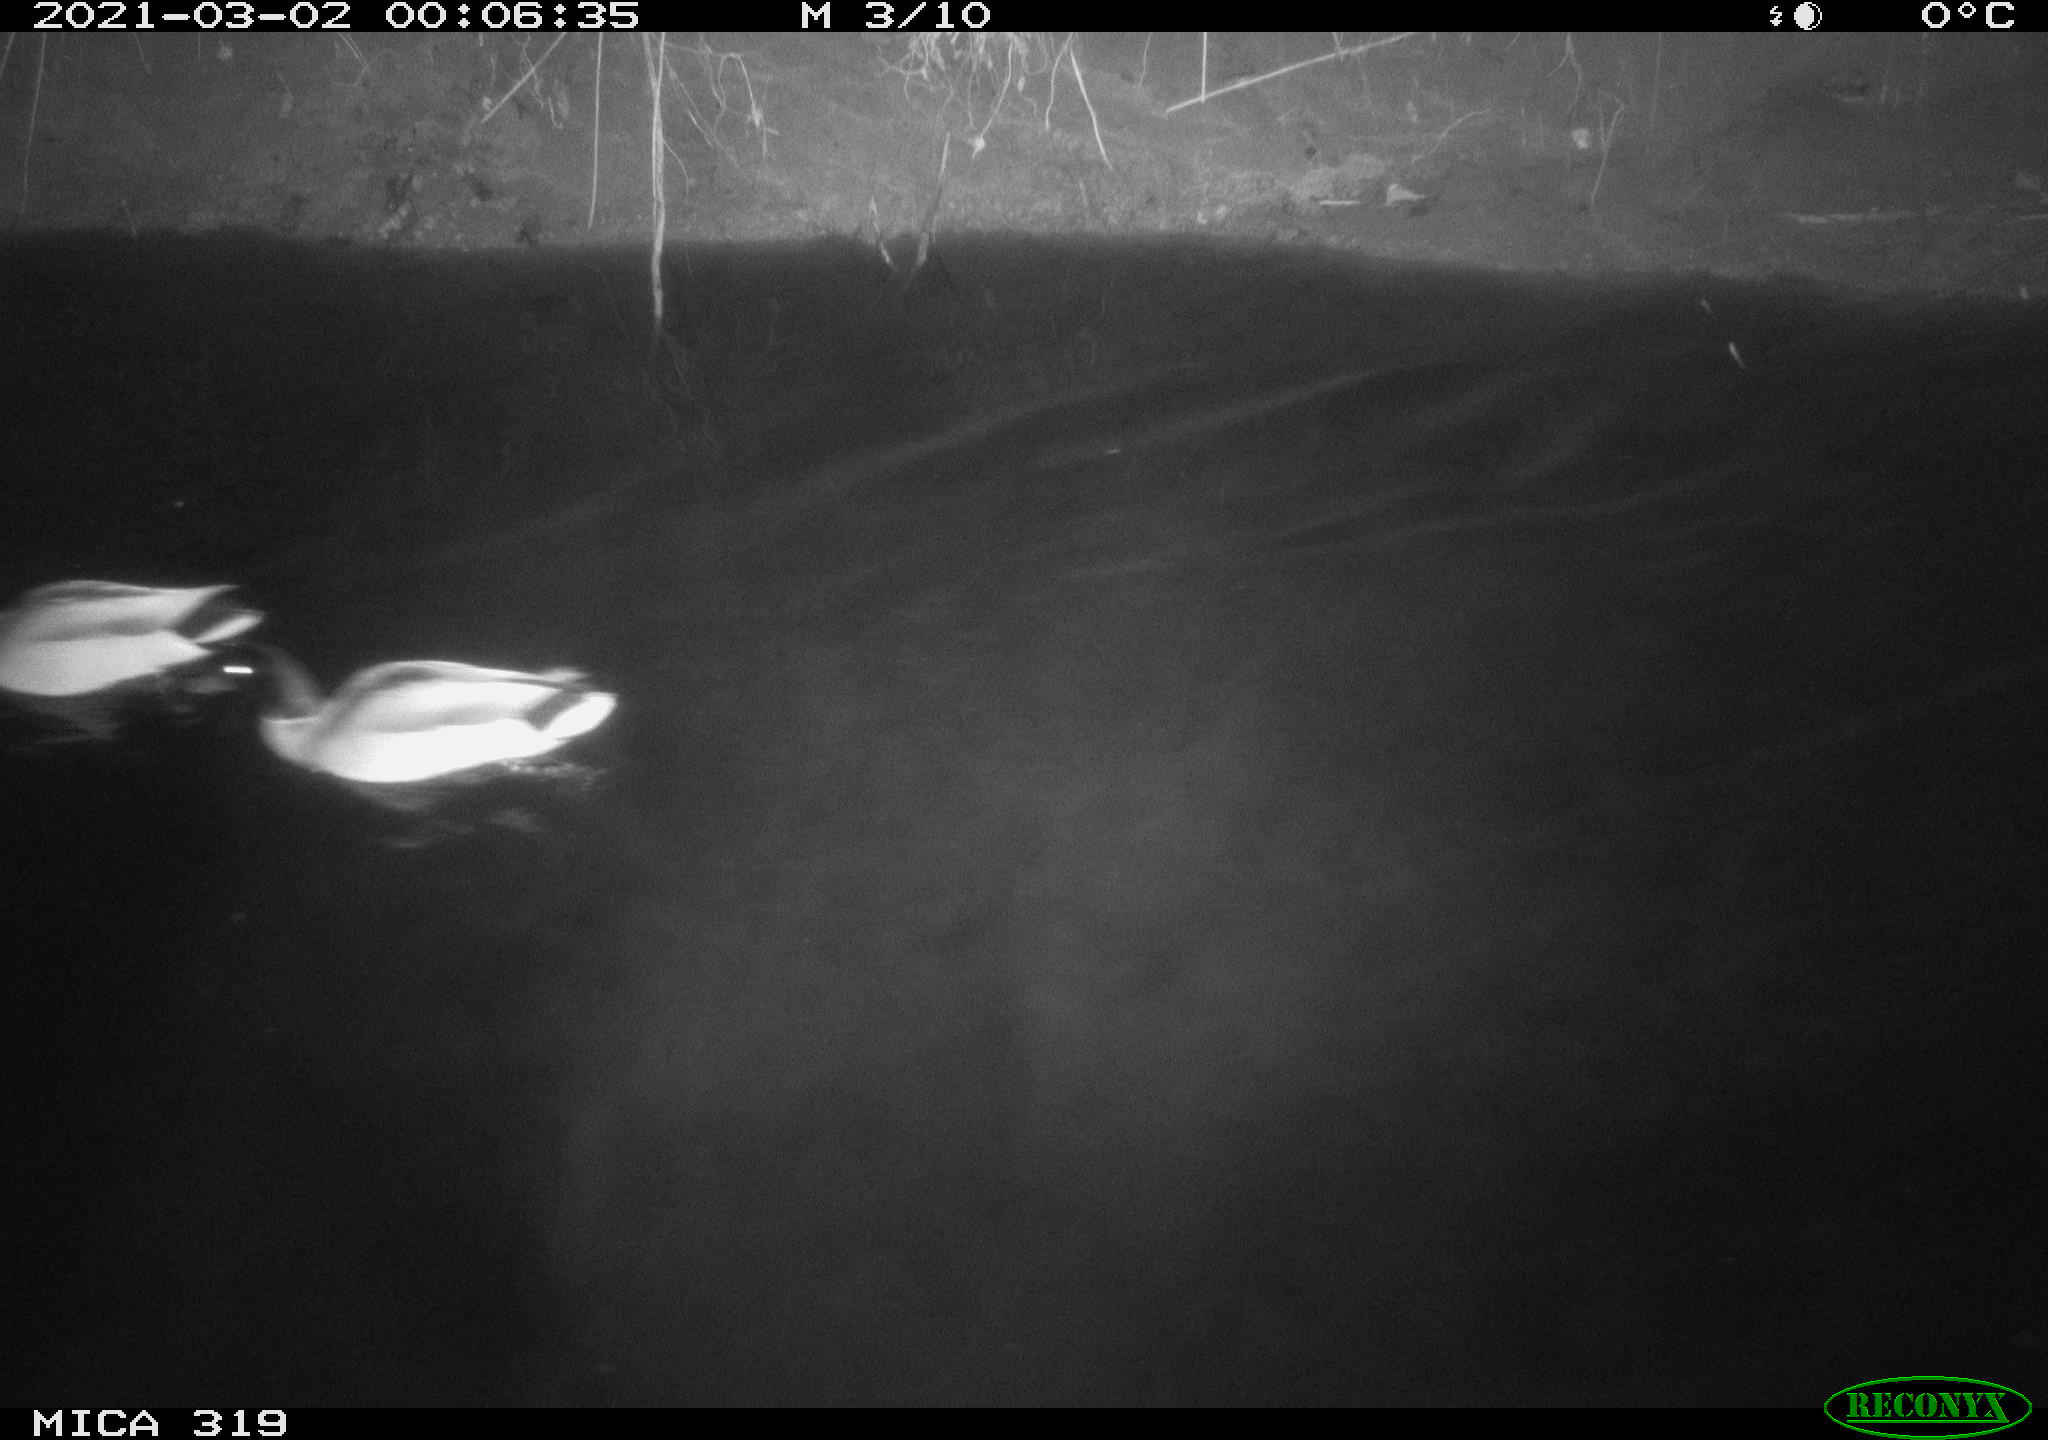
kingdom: Animalia
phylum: Chordata
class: Aves
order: Anseriformes
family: Anatidae
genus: Anas
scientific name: Anas platyrhynchos
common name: Mallard
